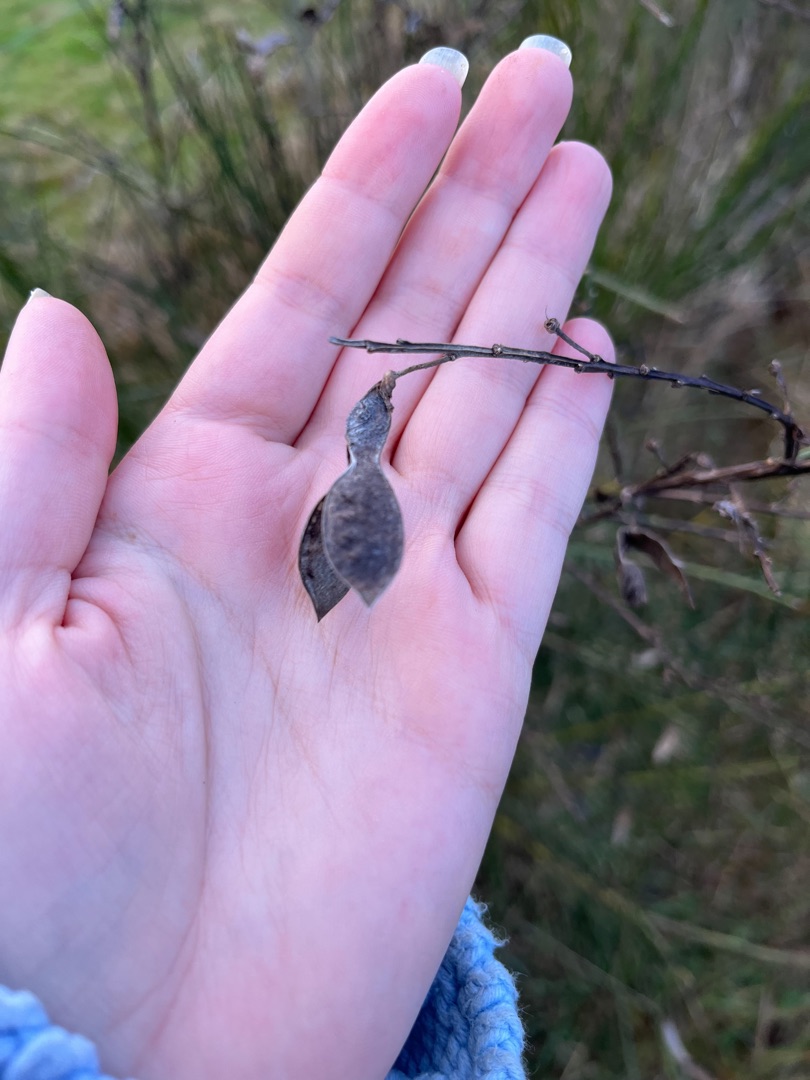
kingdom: Plantae
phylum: Tracheophyta
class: Magnoliopsida
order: Fabales
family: Fabaceae
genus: Cytisus
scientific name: Cytisus scoparius
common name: Almindelig gyvel
